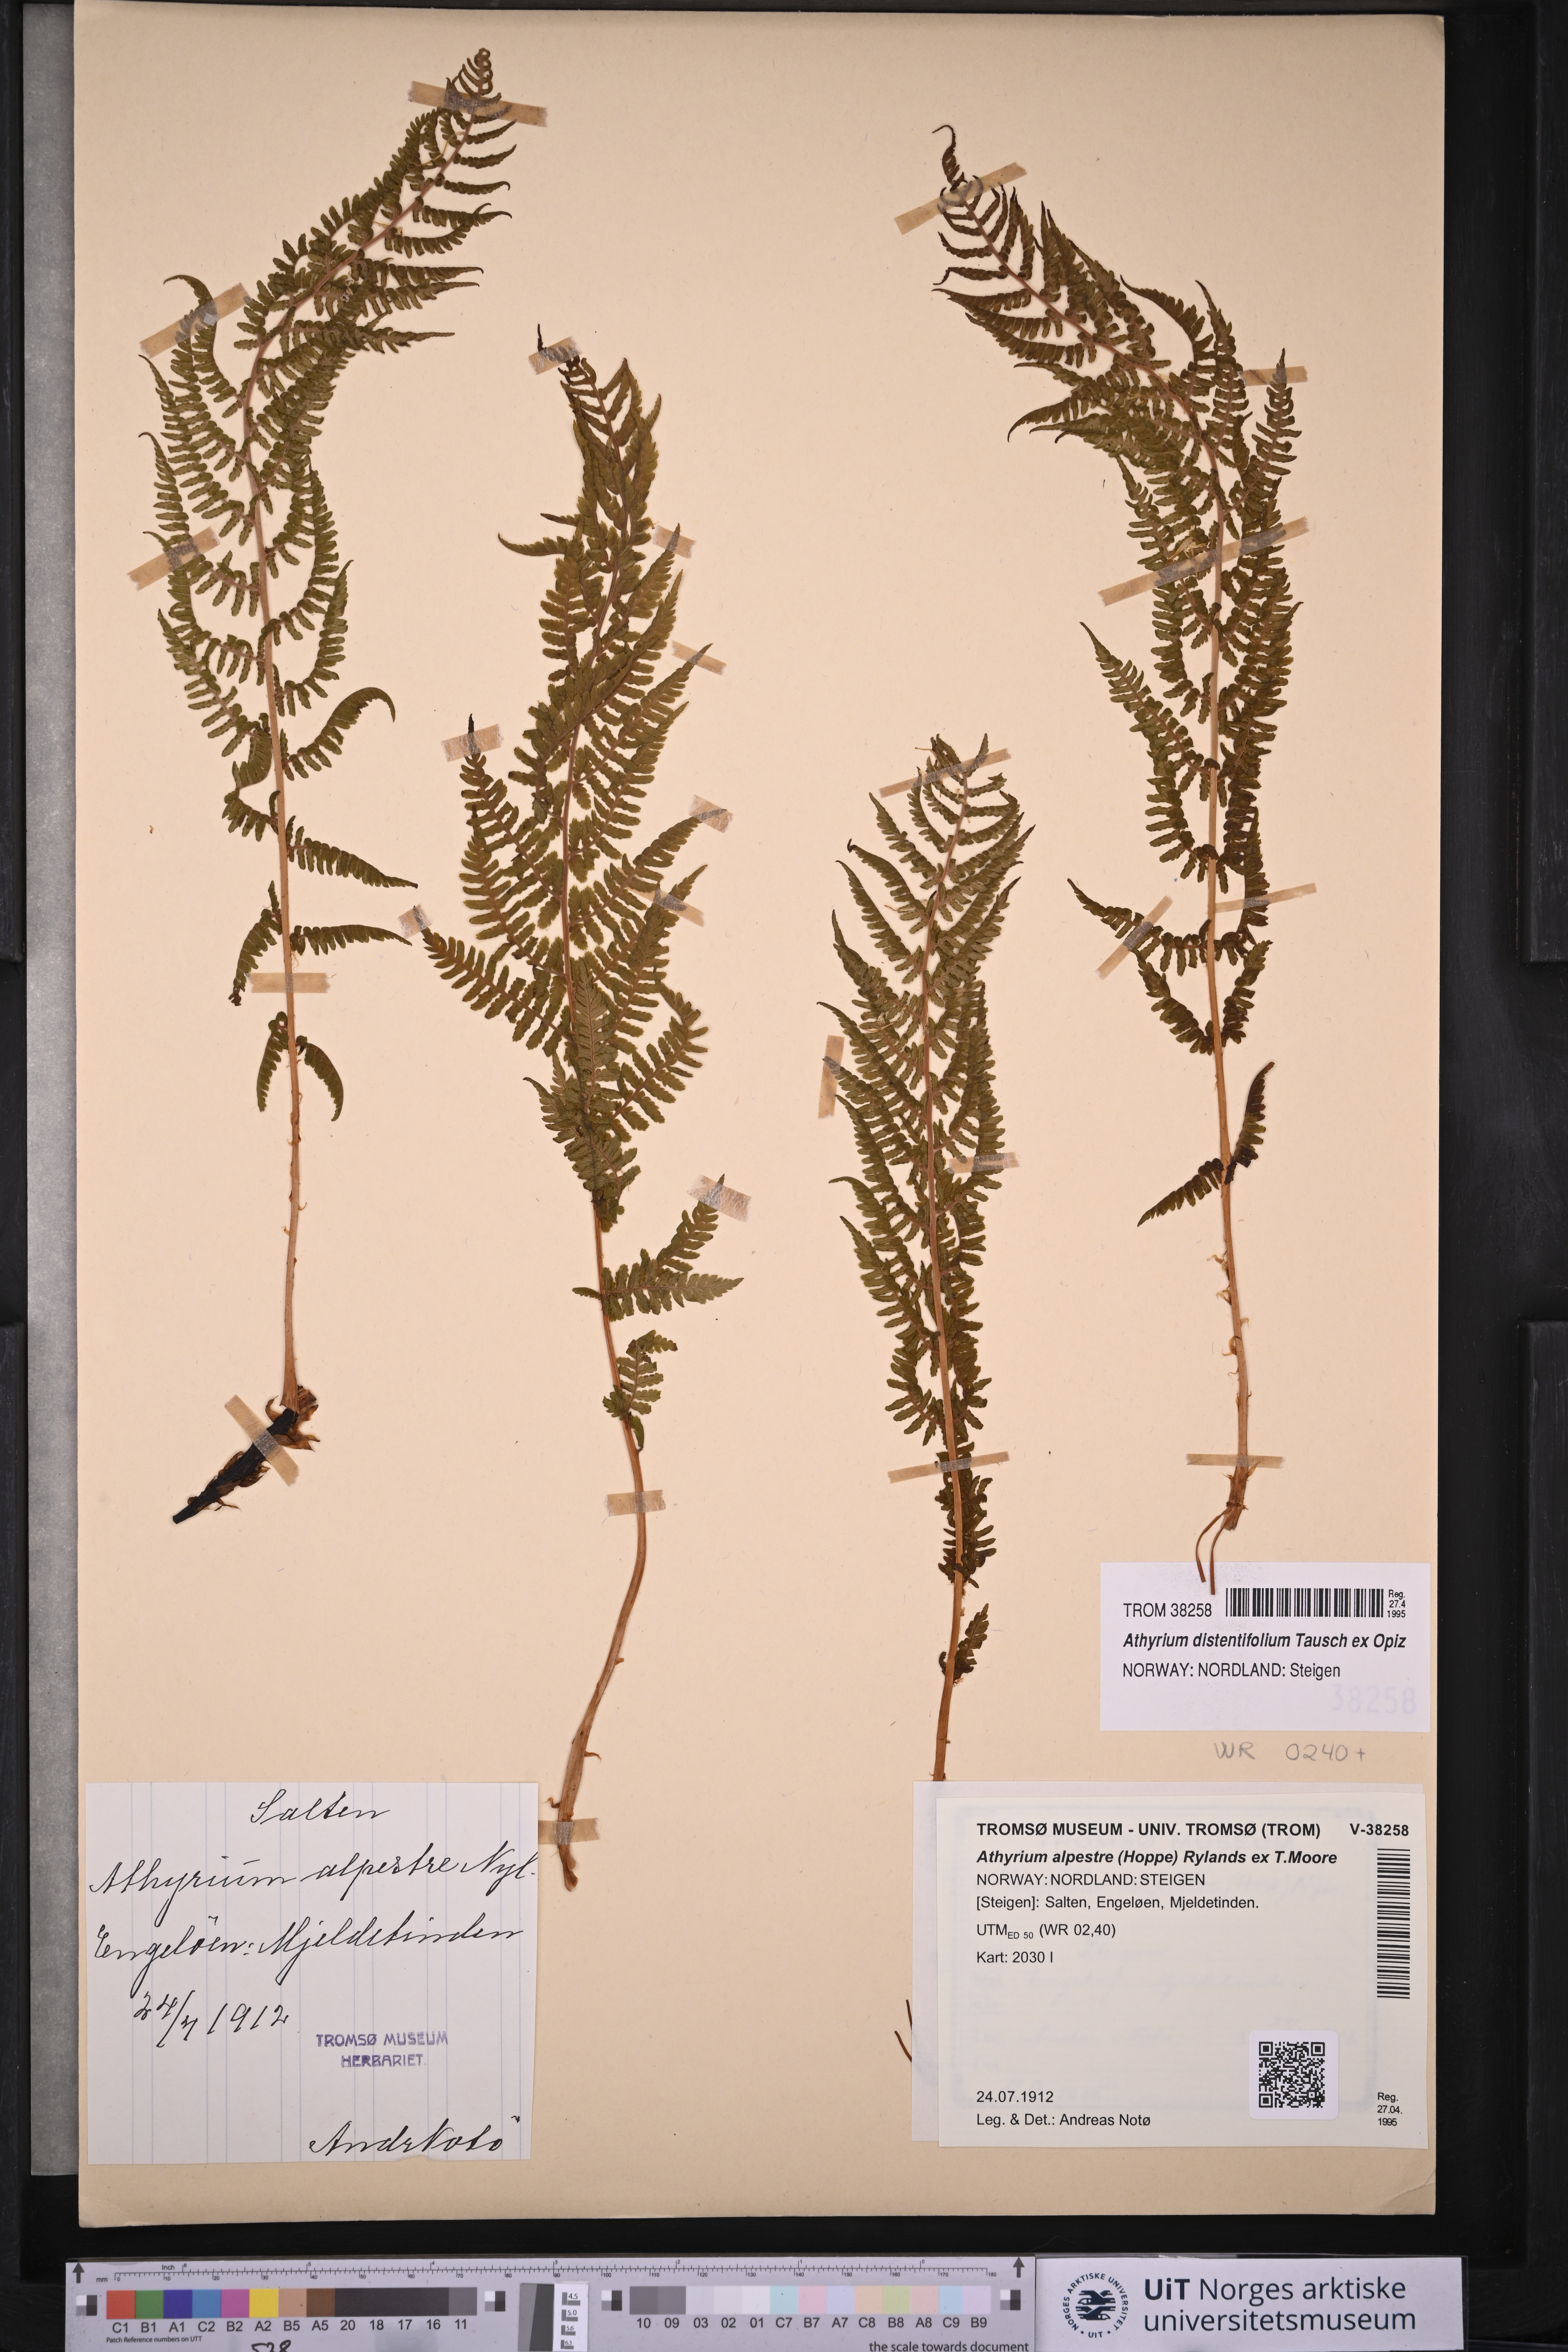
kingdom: Plantae
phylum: Tracheophyta
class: Polypodiopsida
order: Polypodiales
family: Athyriaceae
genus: Athyrium
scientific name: Athyrium filix-femina
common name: Lady fern
